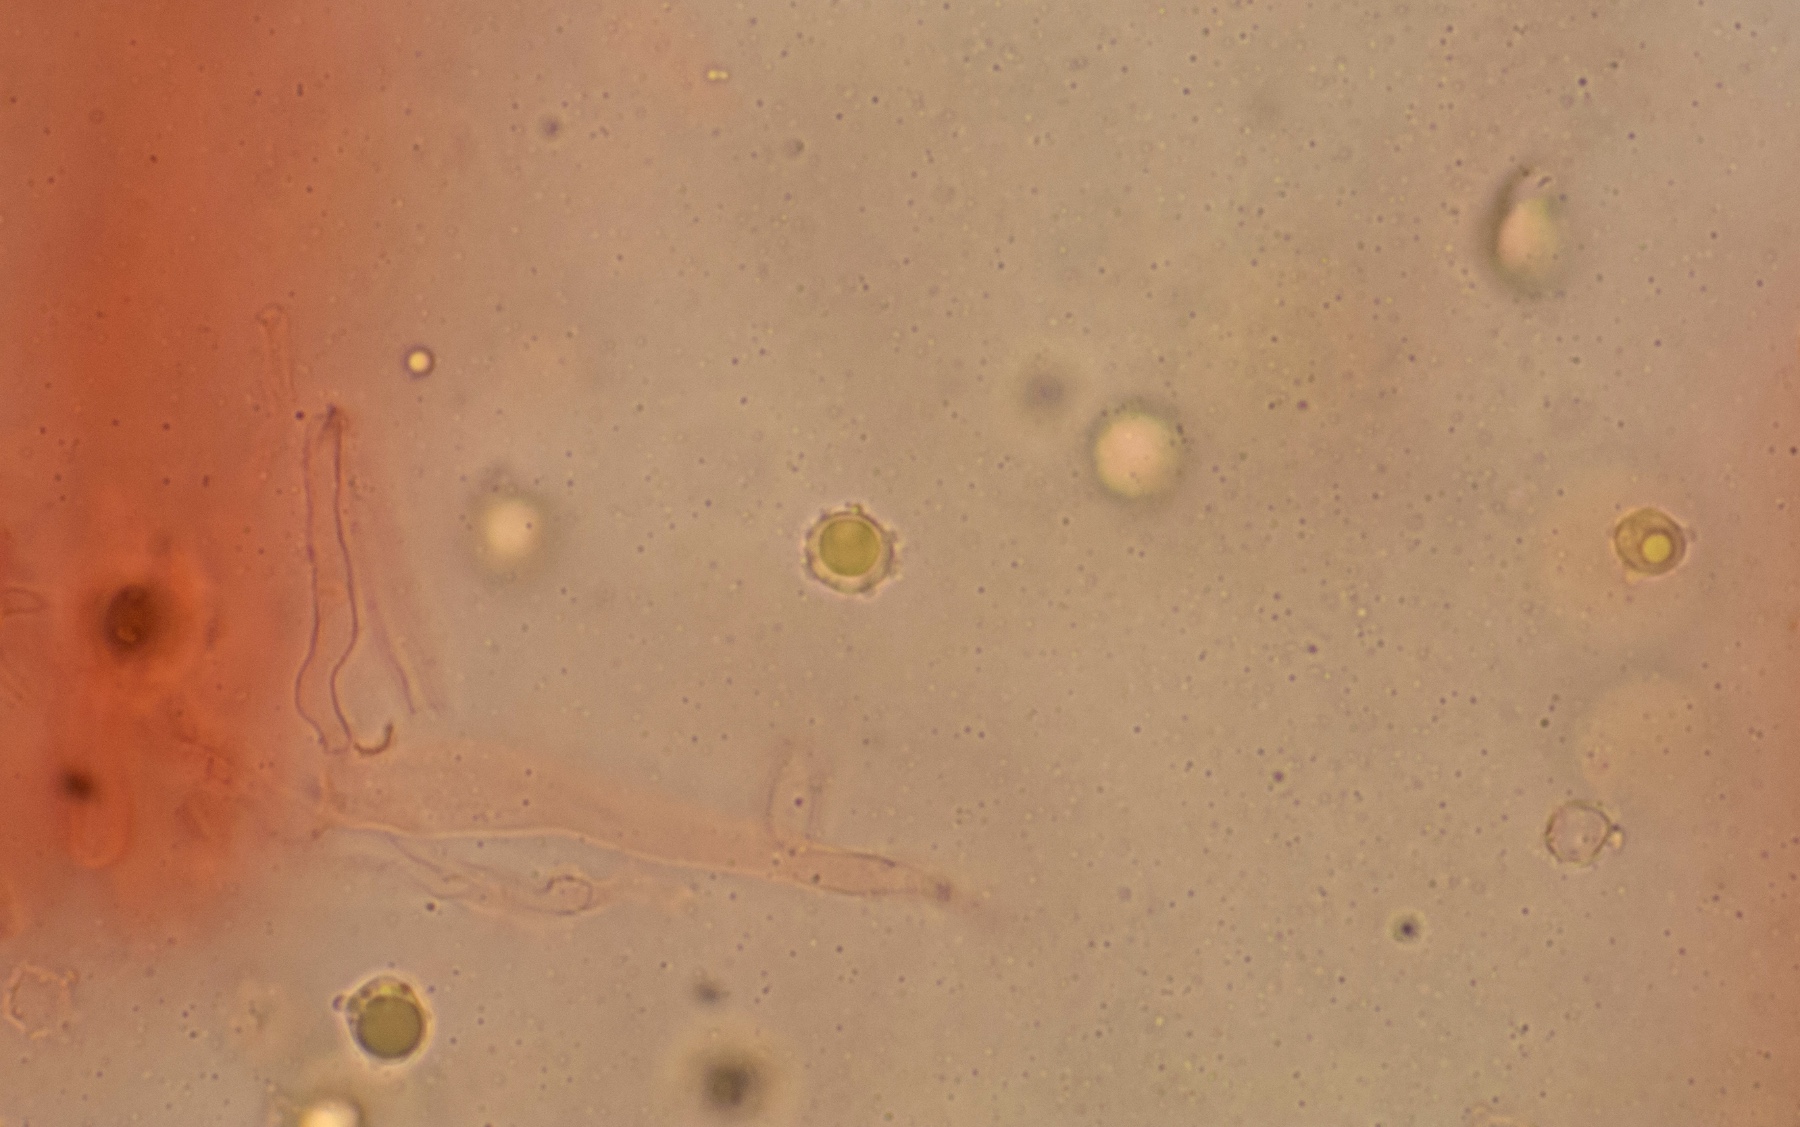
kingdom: Fungi
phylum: Basidiomycota
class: Agaricomycetes
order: Agaricales
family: Clavariaceae
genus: Clavulinopsis
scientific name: Clavulinopsis helvola
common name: orangegul køllesvamp
